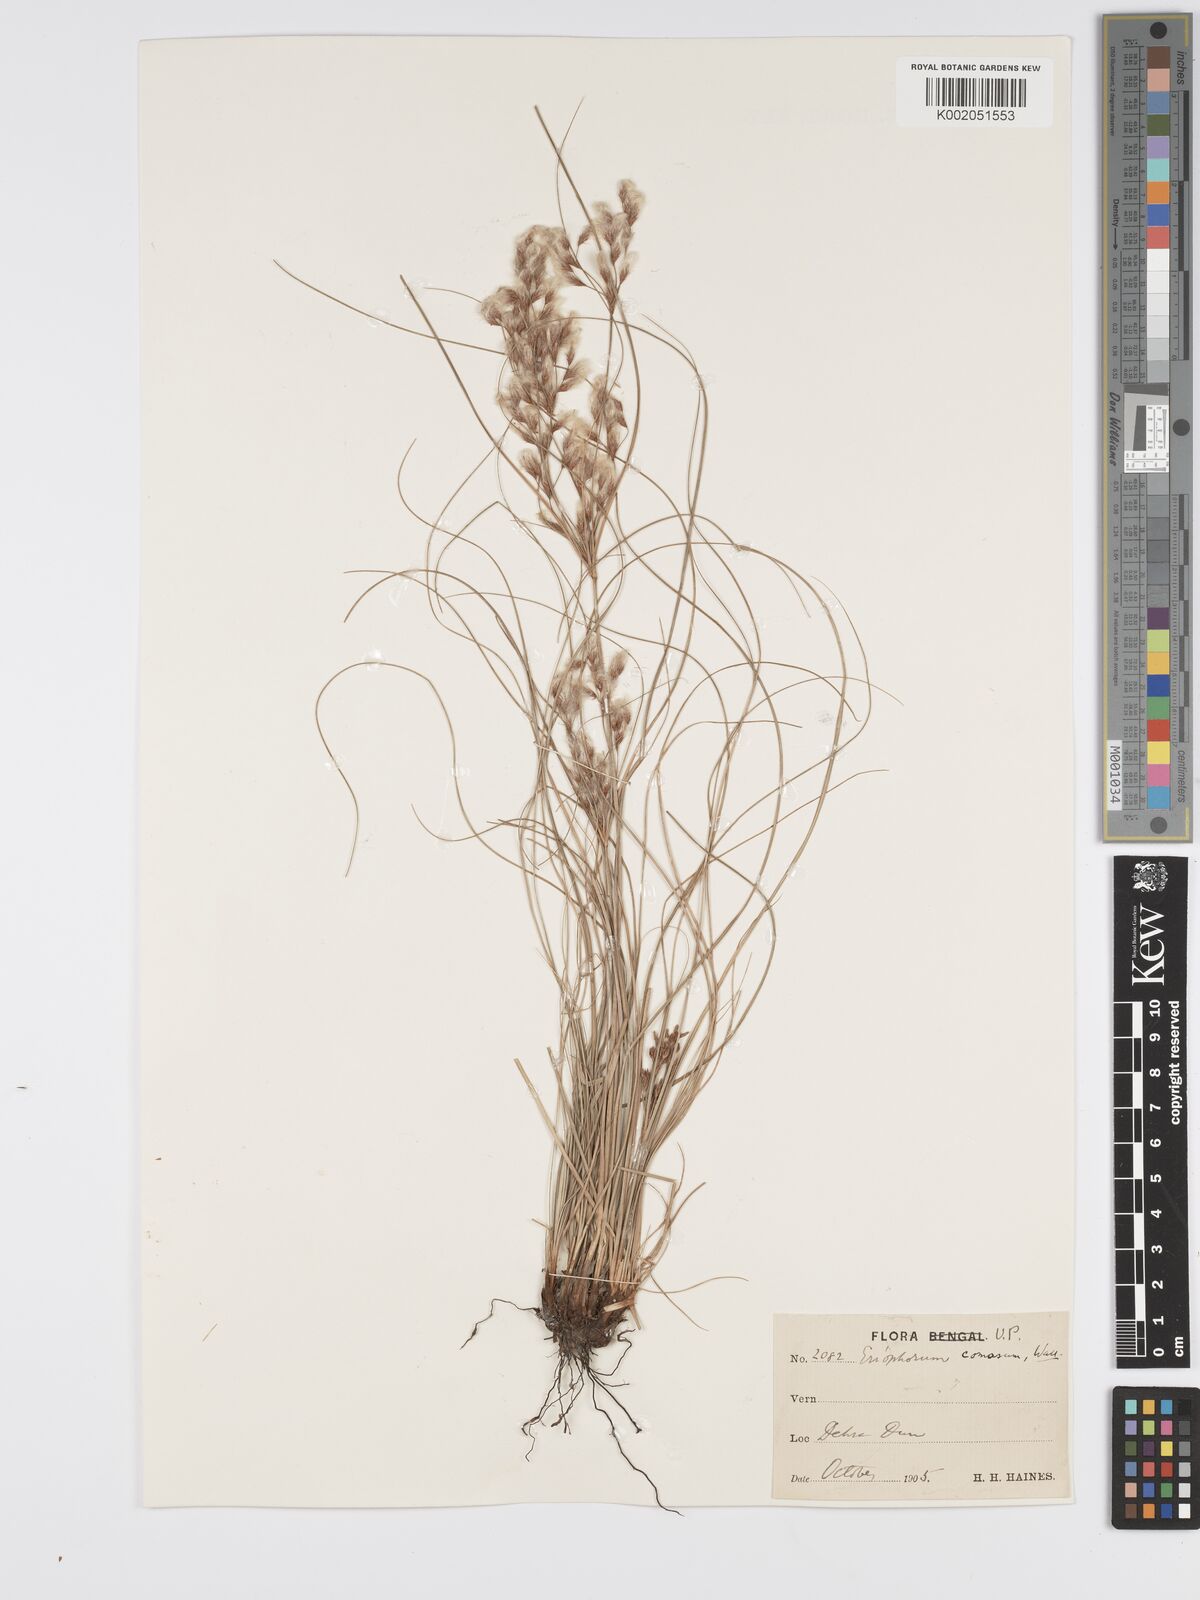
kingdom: Plantae
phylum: Tracheophyta
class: Liliopsida
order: Poales
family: Cyperaceae
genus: Erioscirpus
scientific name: Erioscirpus comosus
